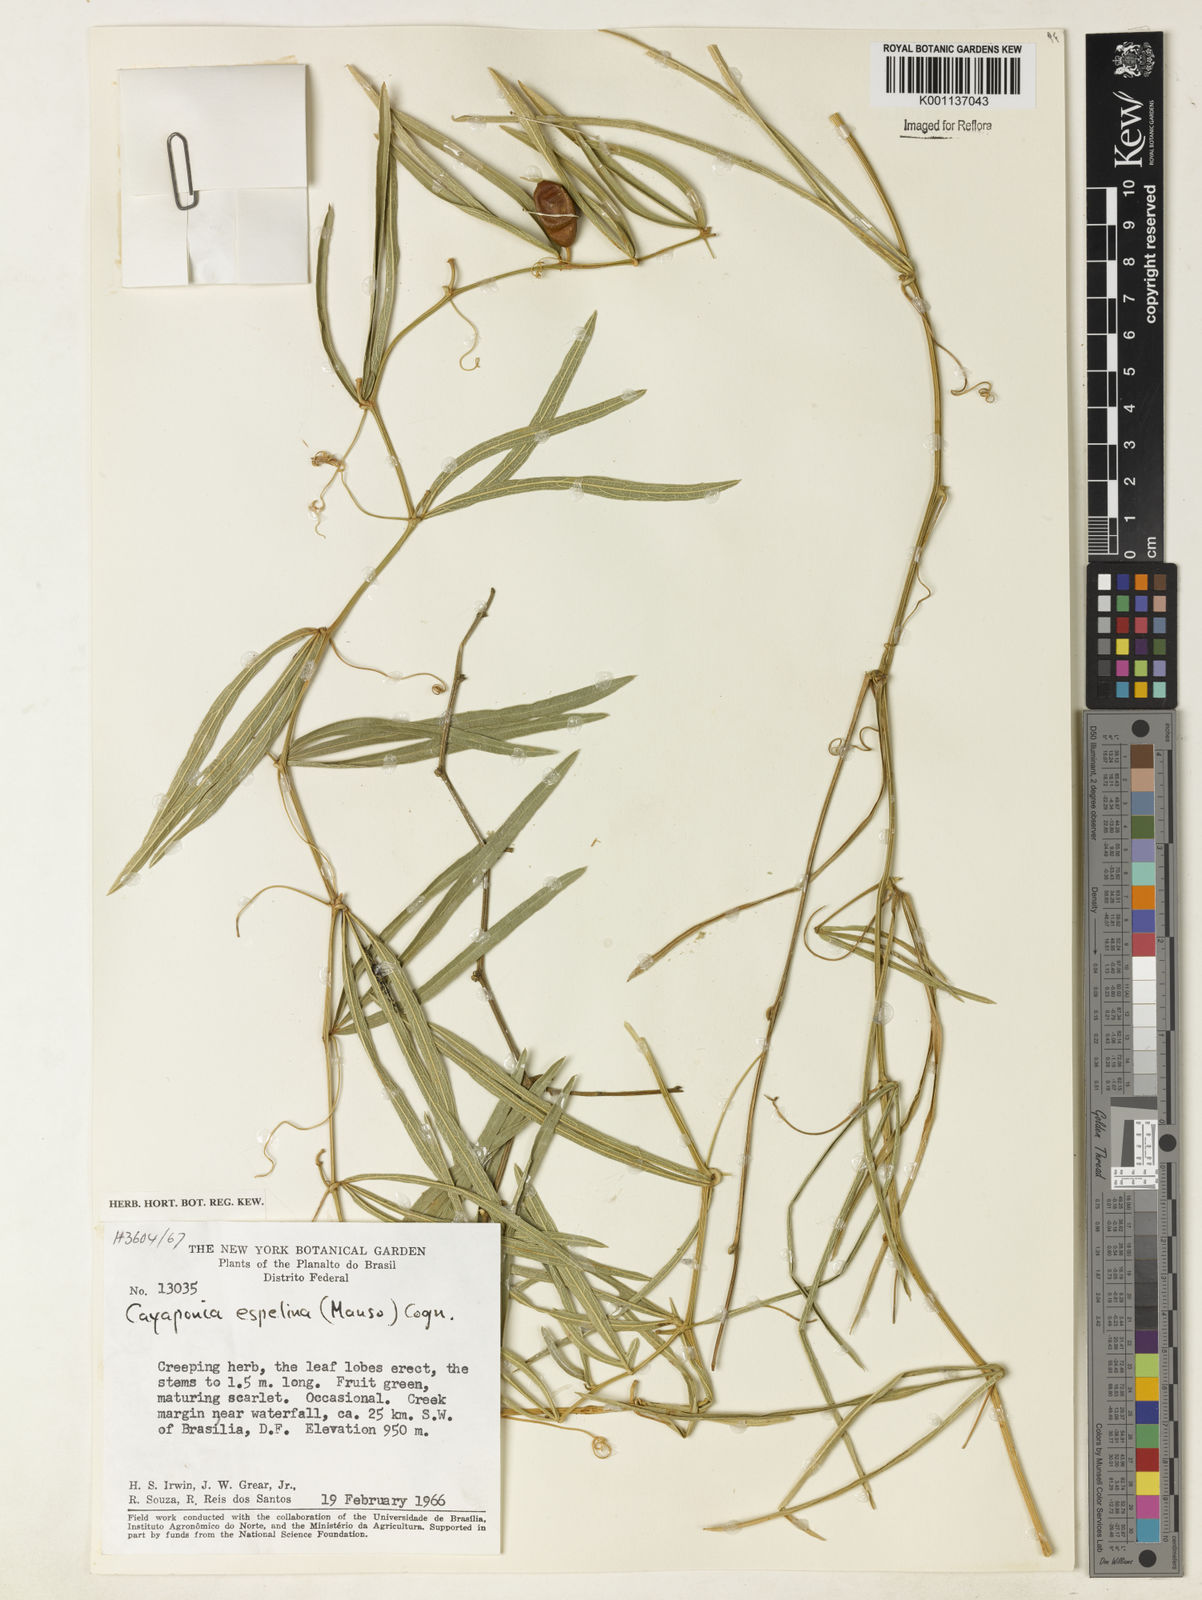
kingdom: Plantae
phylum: Tracheophyta
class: Magnoliopsida
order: Cucurbitales
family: Cucurbitaceae
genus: Cayaponia
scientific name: Cayaponia espelina
